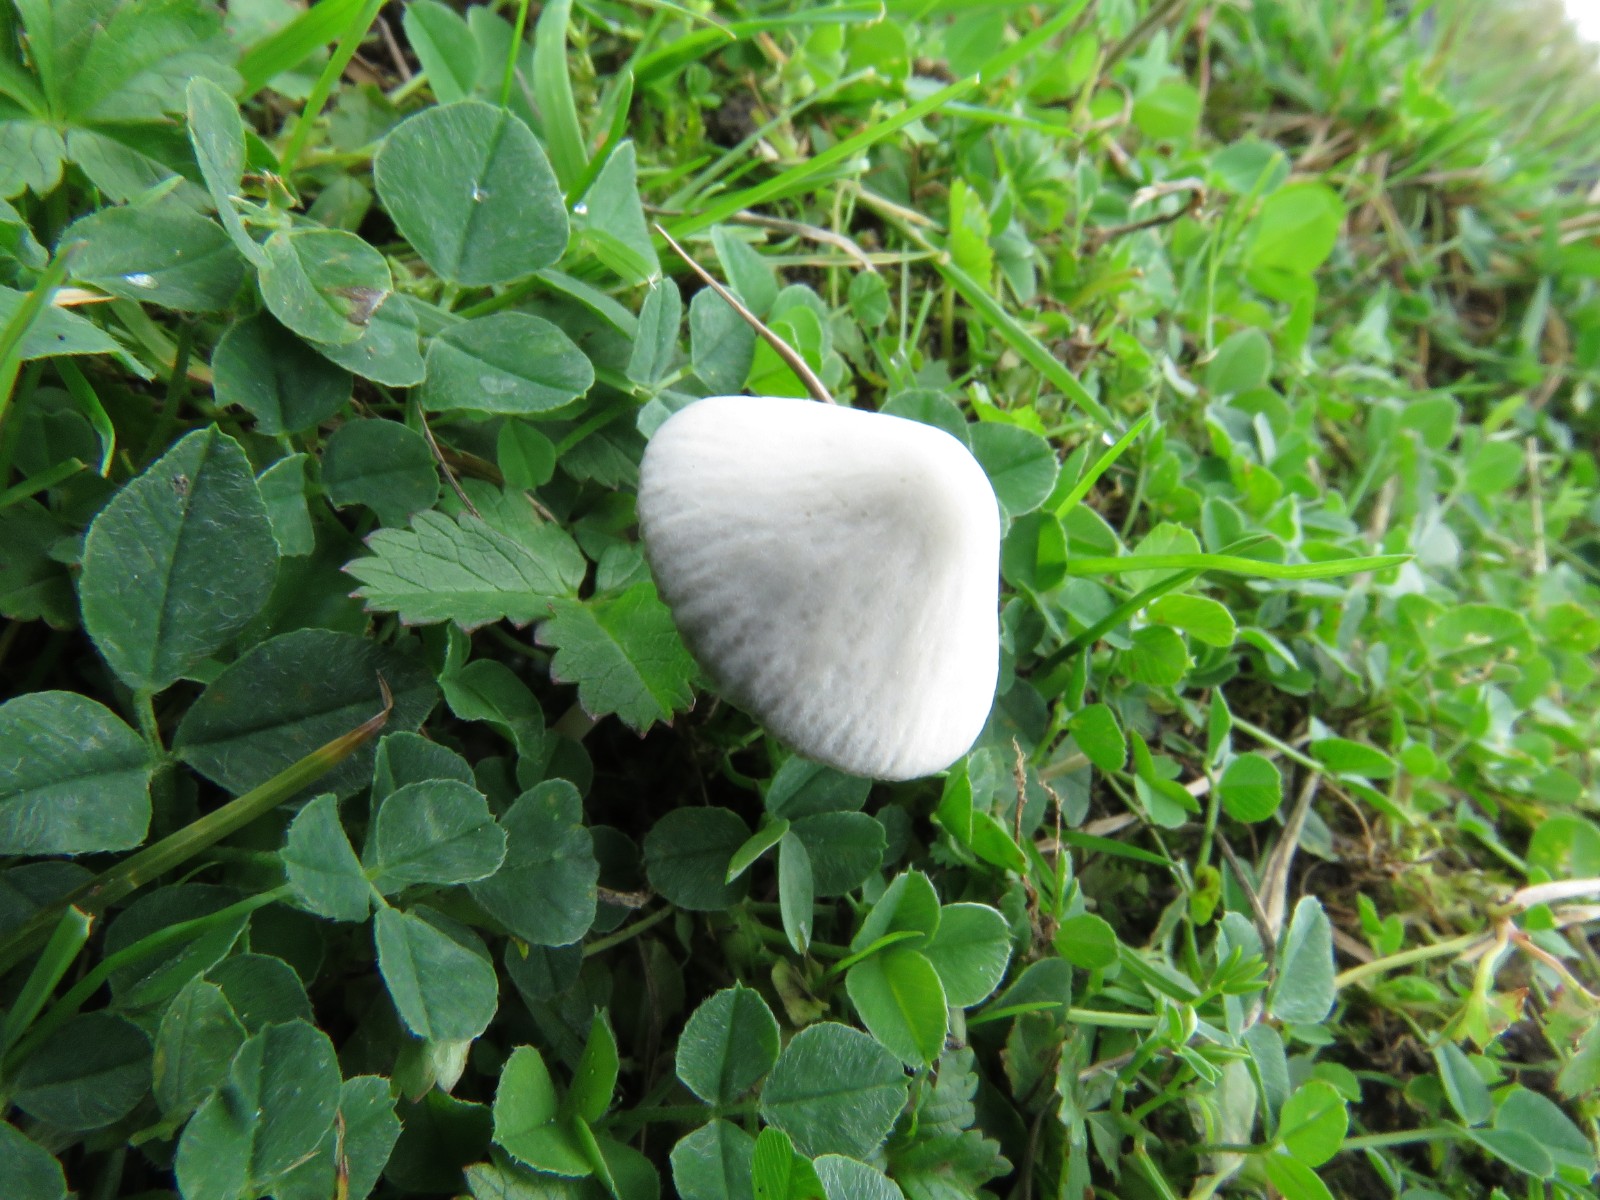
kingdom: Fungi
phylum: Basidiomycota
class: Agaricomycetes
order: Agaricales
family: Psathyrellaceae
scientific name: Psathyrellaceae
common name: mørkhatfamilien
